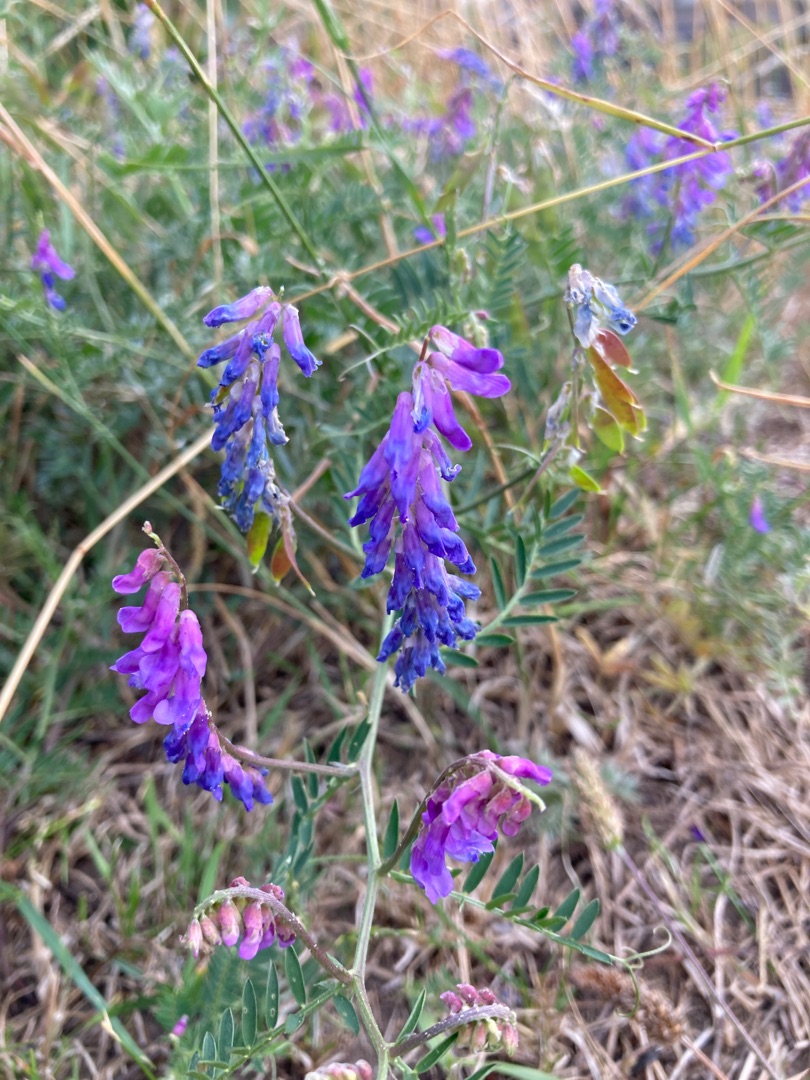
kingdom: Plantae
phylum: Tracheophyta
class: Magnoliopsida
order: Fabales
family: Fabaceae
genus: Vicia
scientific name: Vicia cracca
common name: Muse-vikke
